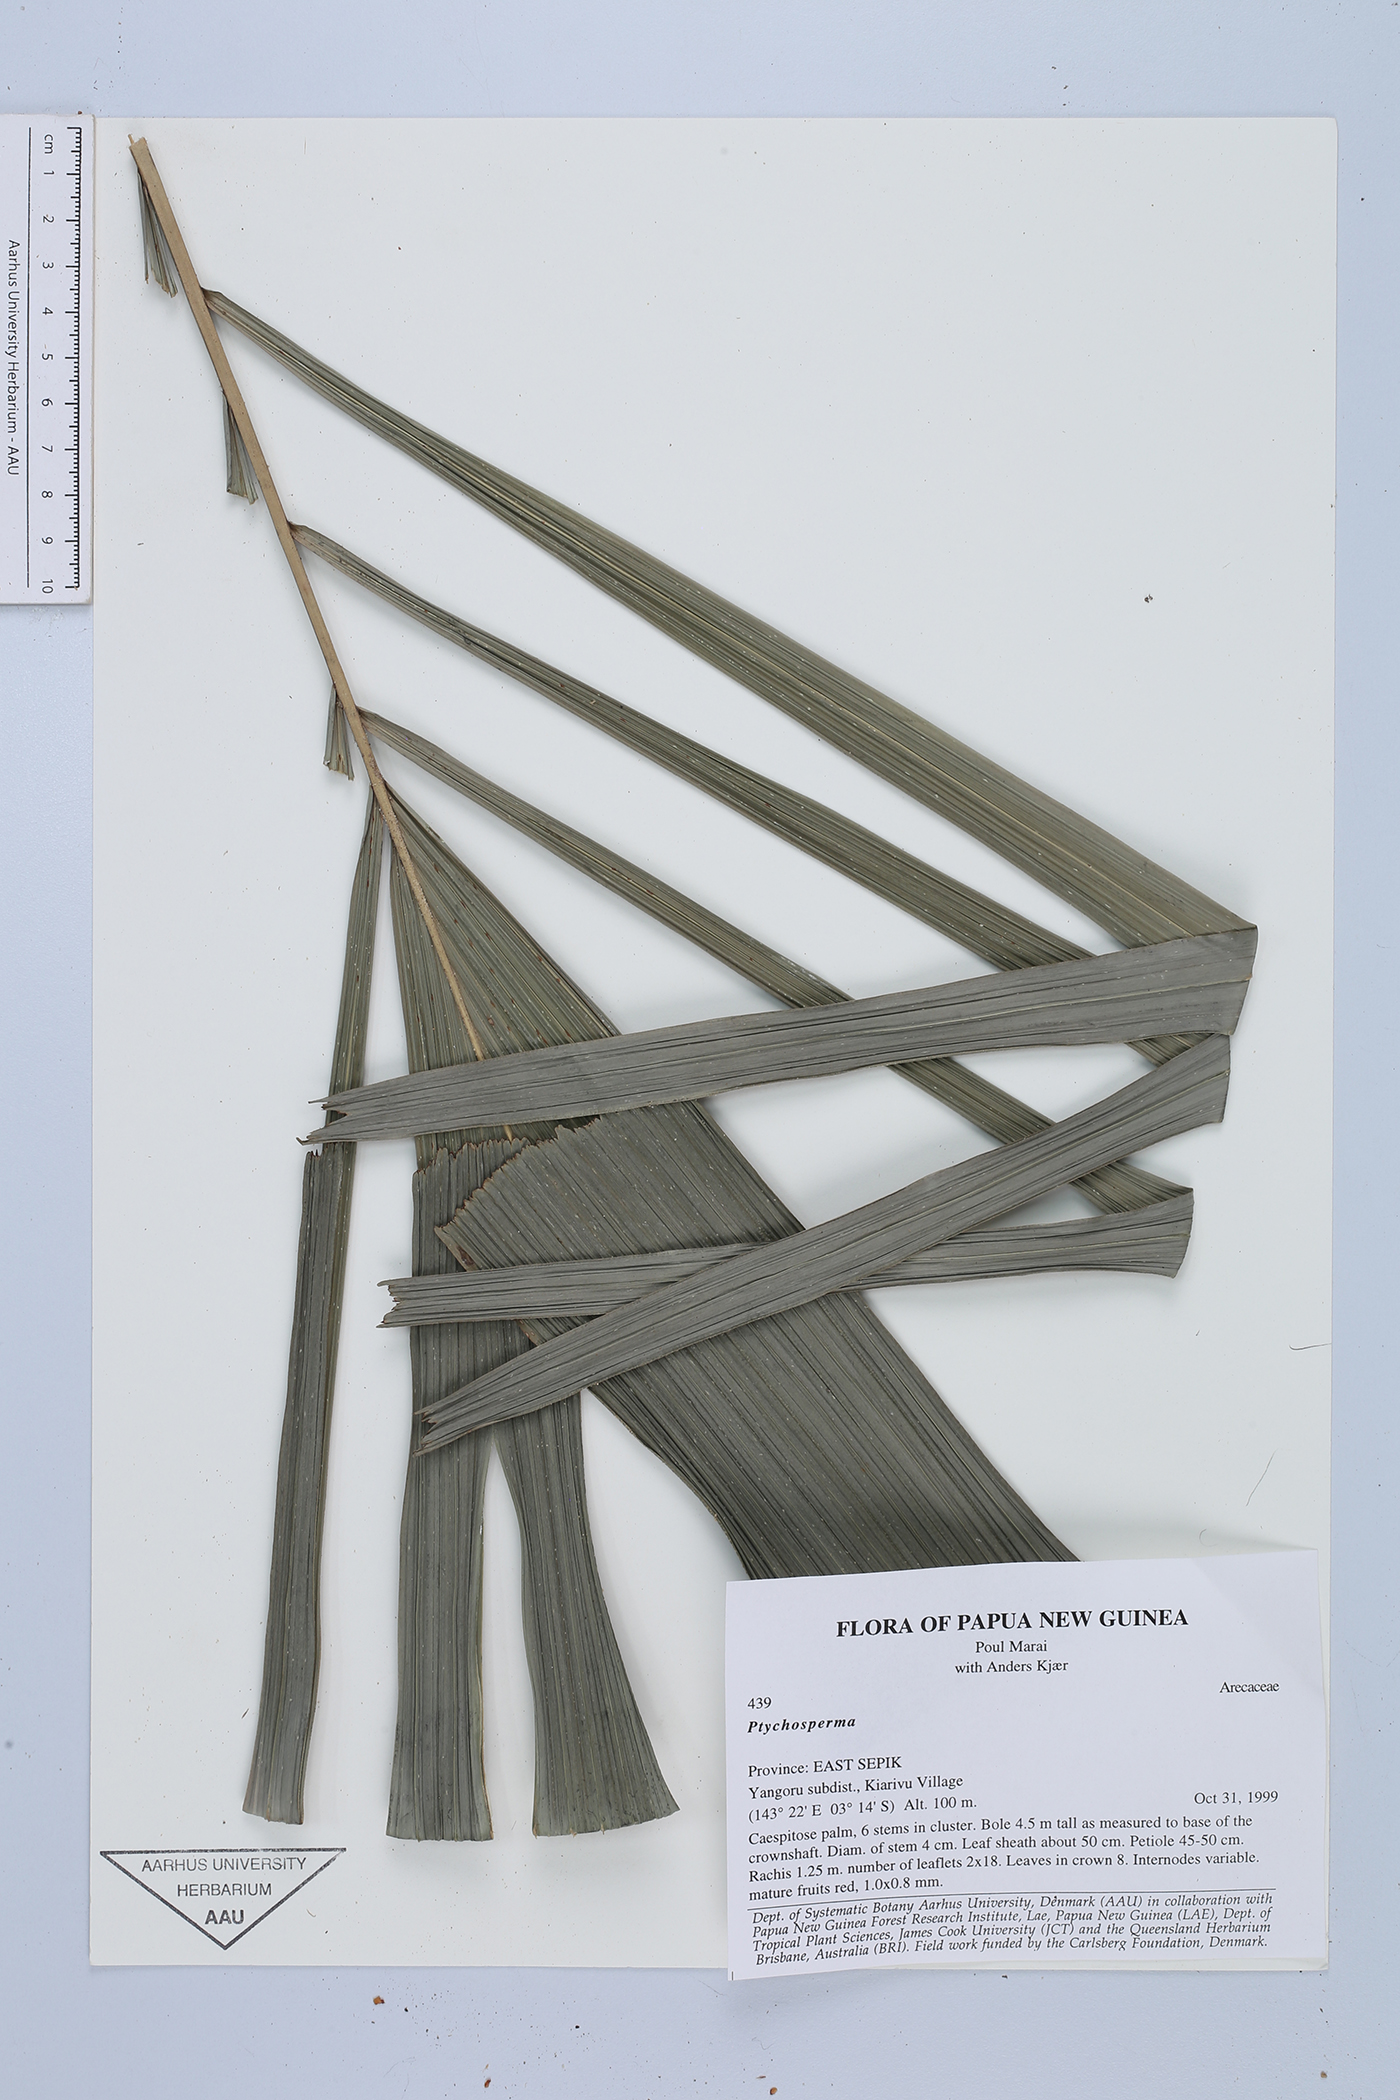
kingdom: Plantae
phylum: Tracheophyta
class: Liliopsida
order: Arecales
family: Arecaceae
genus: Ptychosperma
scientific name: Ptychosperma
